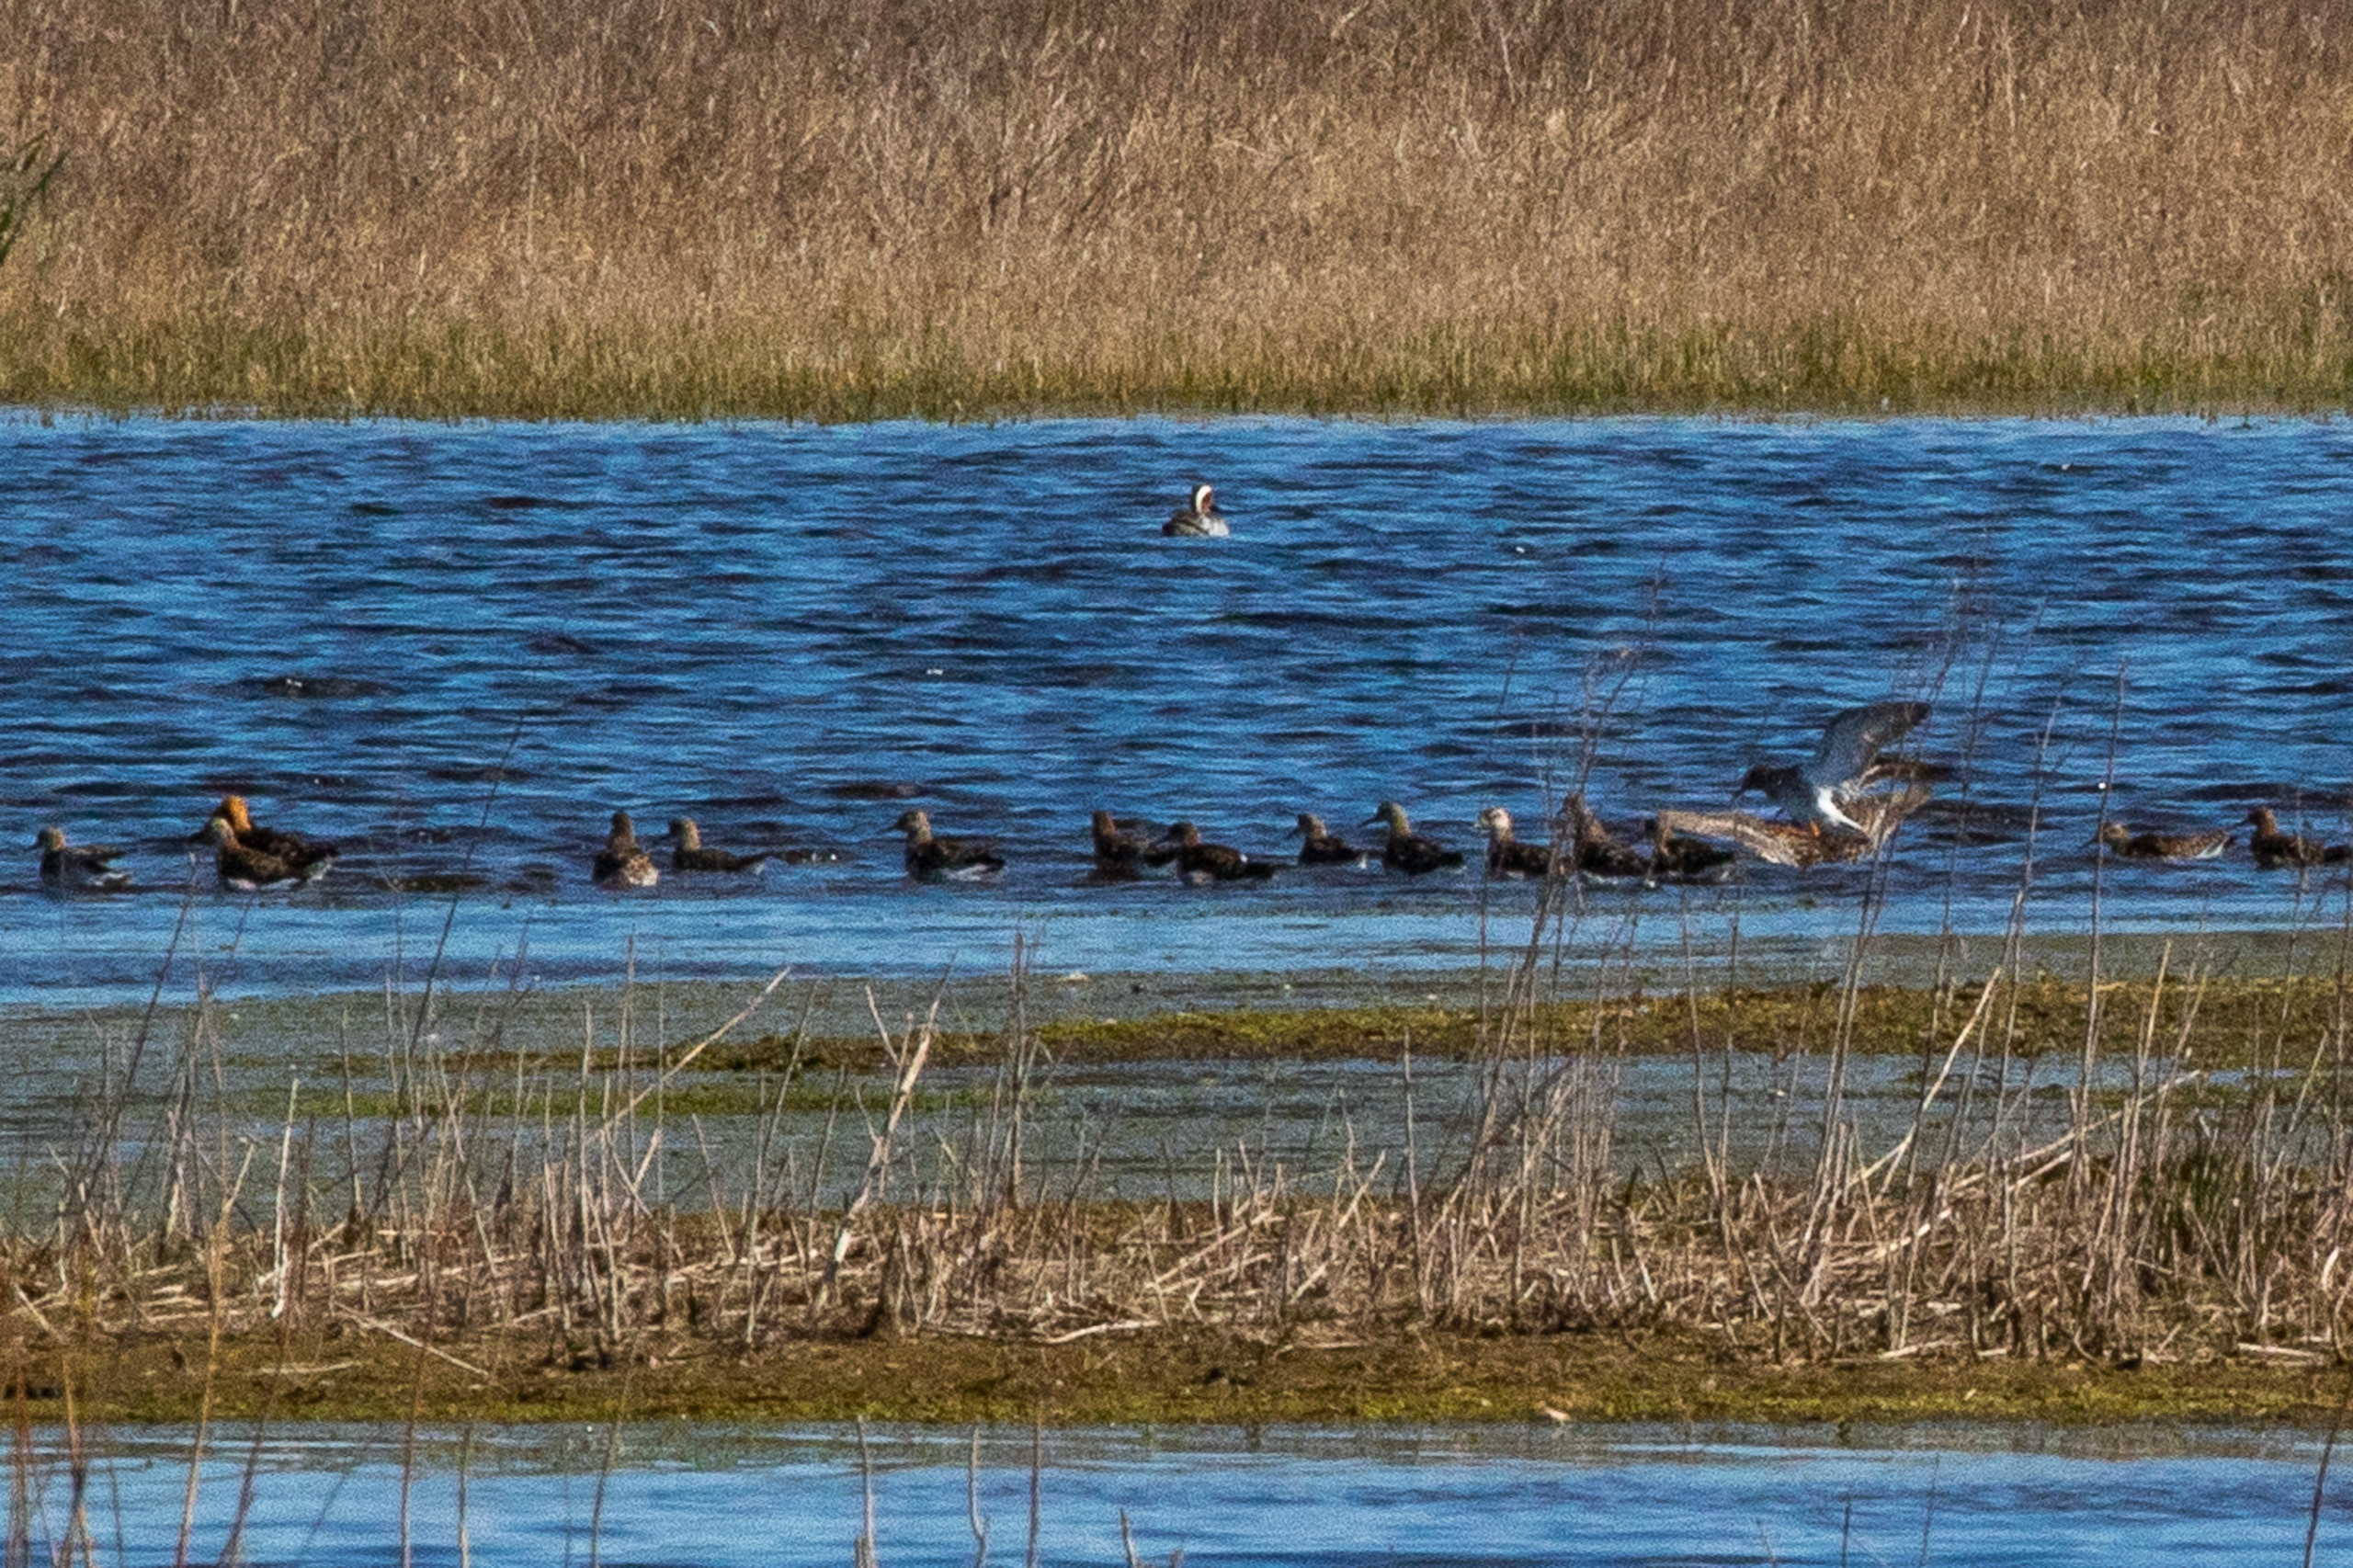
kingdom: Animalia
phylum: Chordata
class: Aves
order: Charadriiformes
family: Scolopacidae
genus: Calidris
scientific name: Calidris pugnax
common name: Brushane
